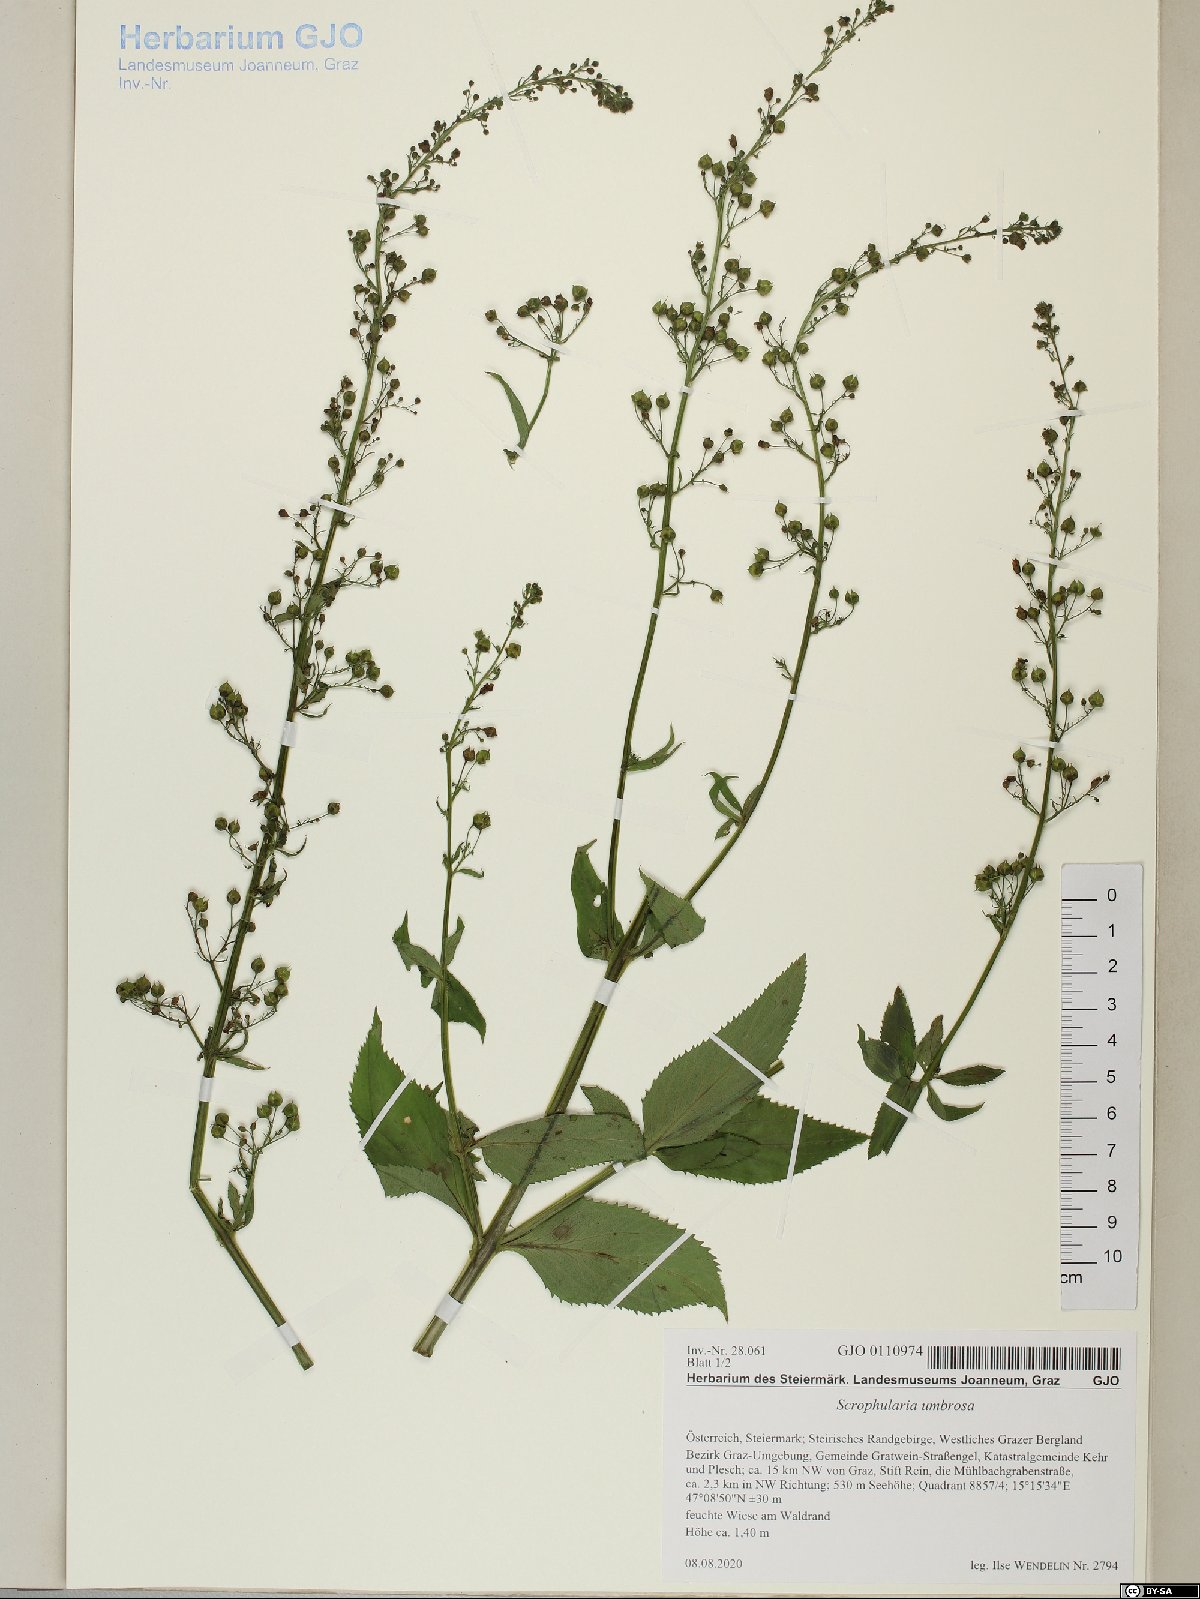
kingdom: Plantae
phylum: Tracheophyta
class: Magnoliopsida
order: Lamiales
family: Scrophulariaceae
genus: Scrophularia
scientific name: Scrophularia umbrosa
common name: Green figwort
